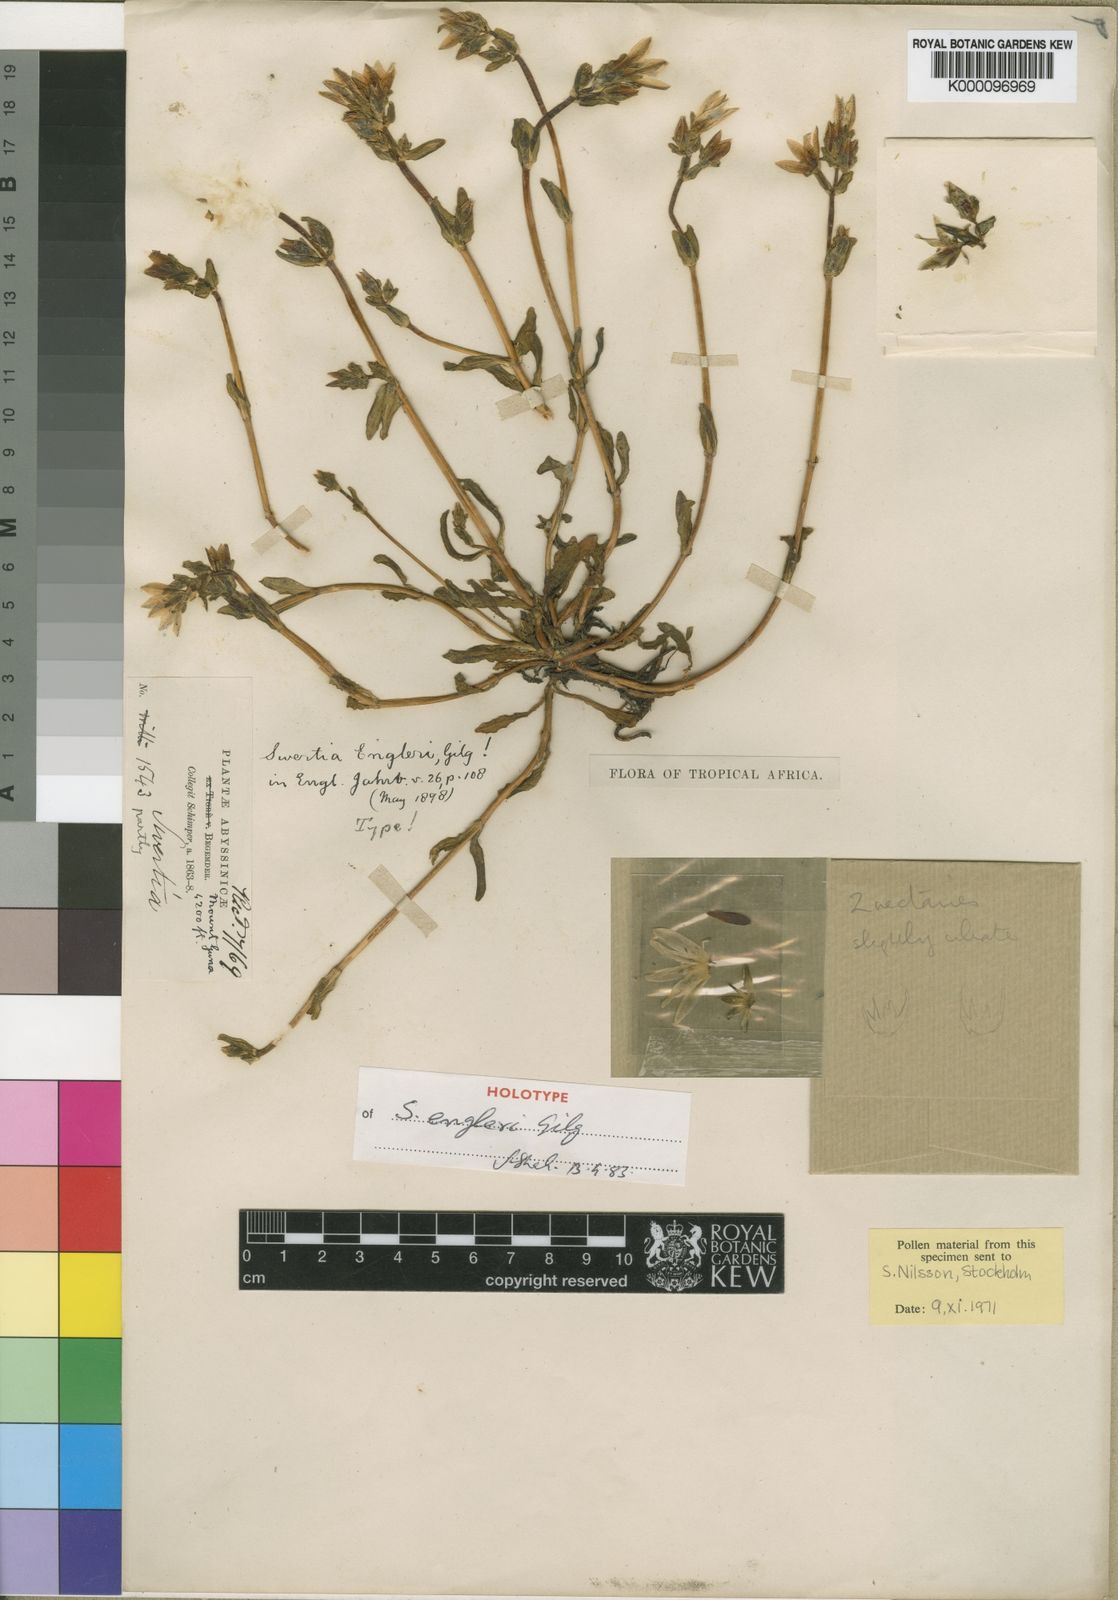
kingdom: Plantae
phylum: Tracheophyta
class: Magnoliopsida
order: Gentianales
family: Gentianaceae
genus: Swertia
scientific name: Swertia engleri
